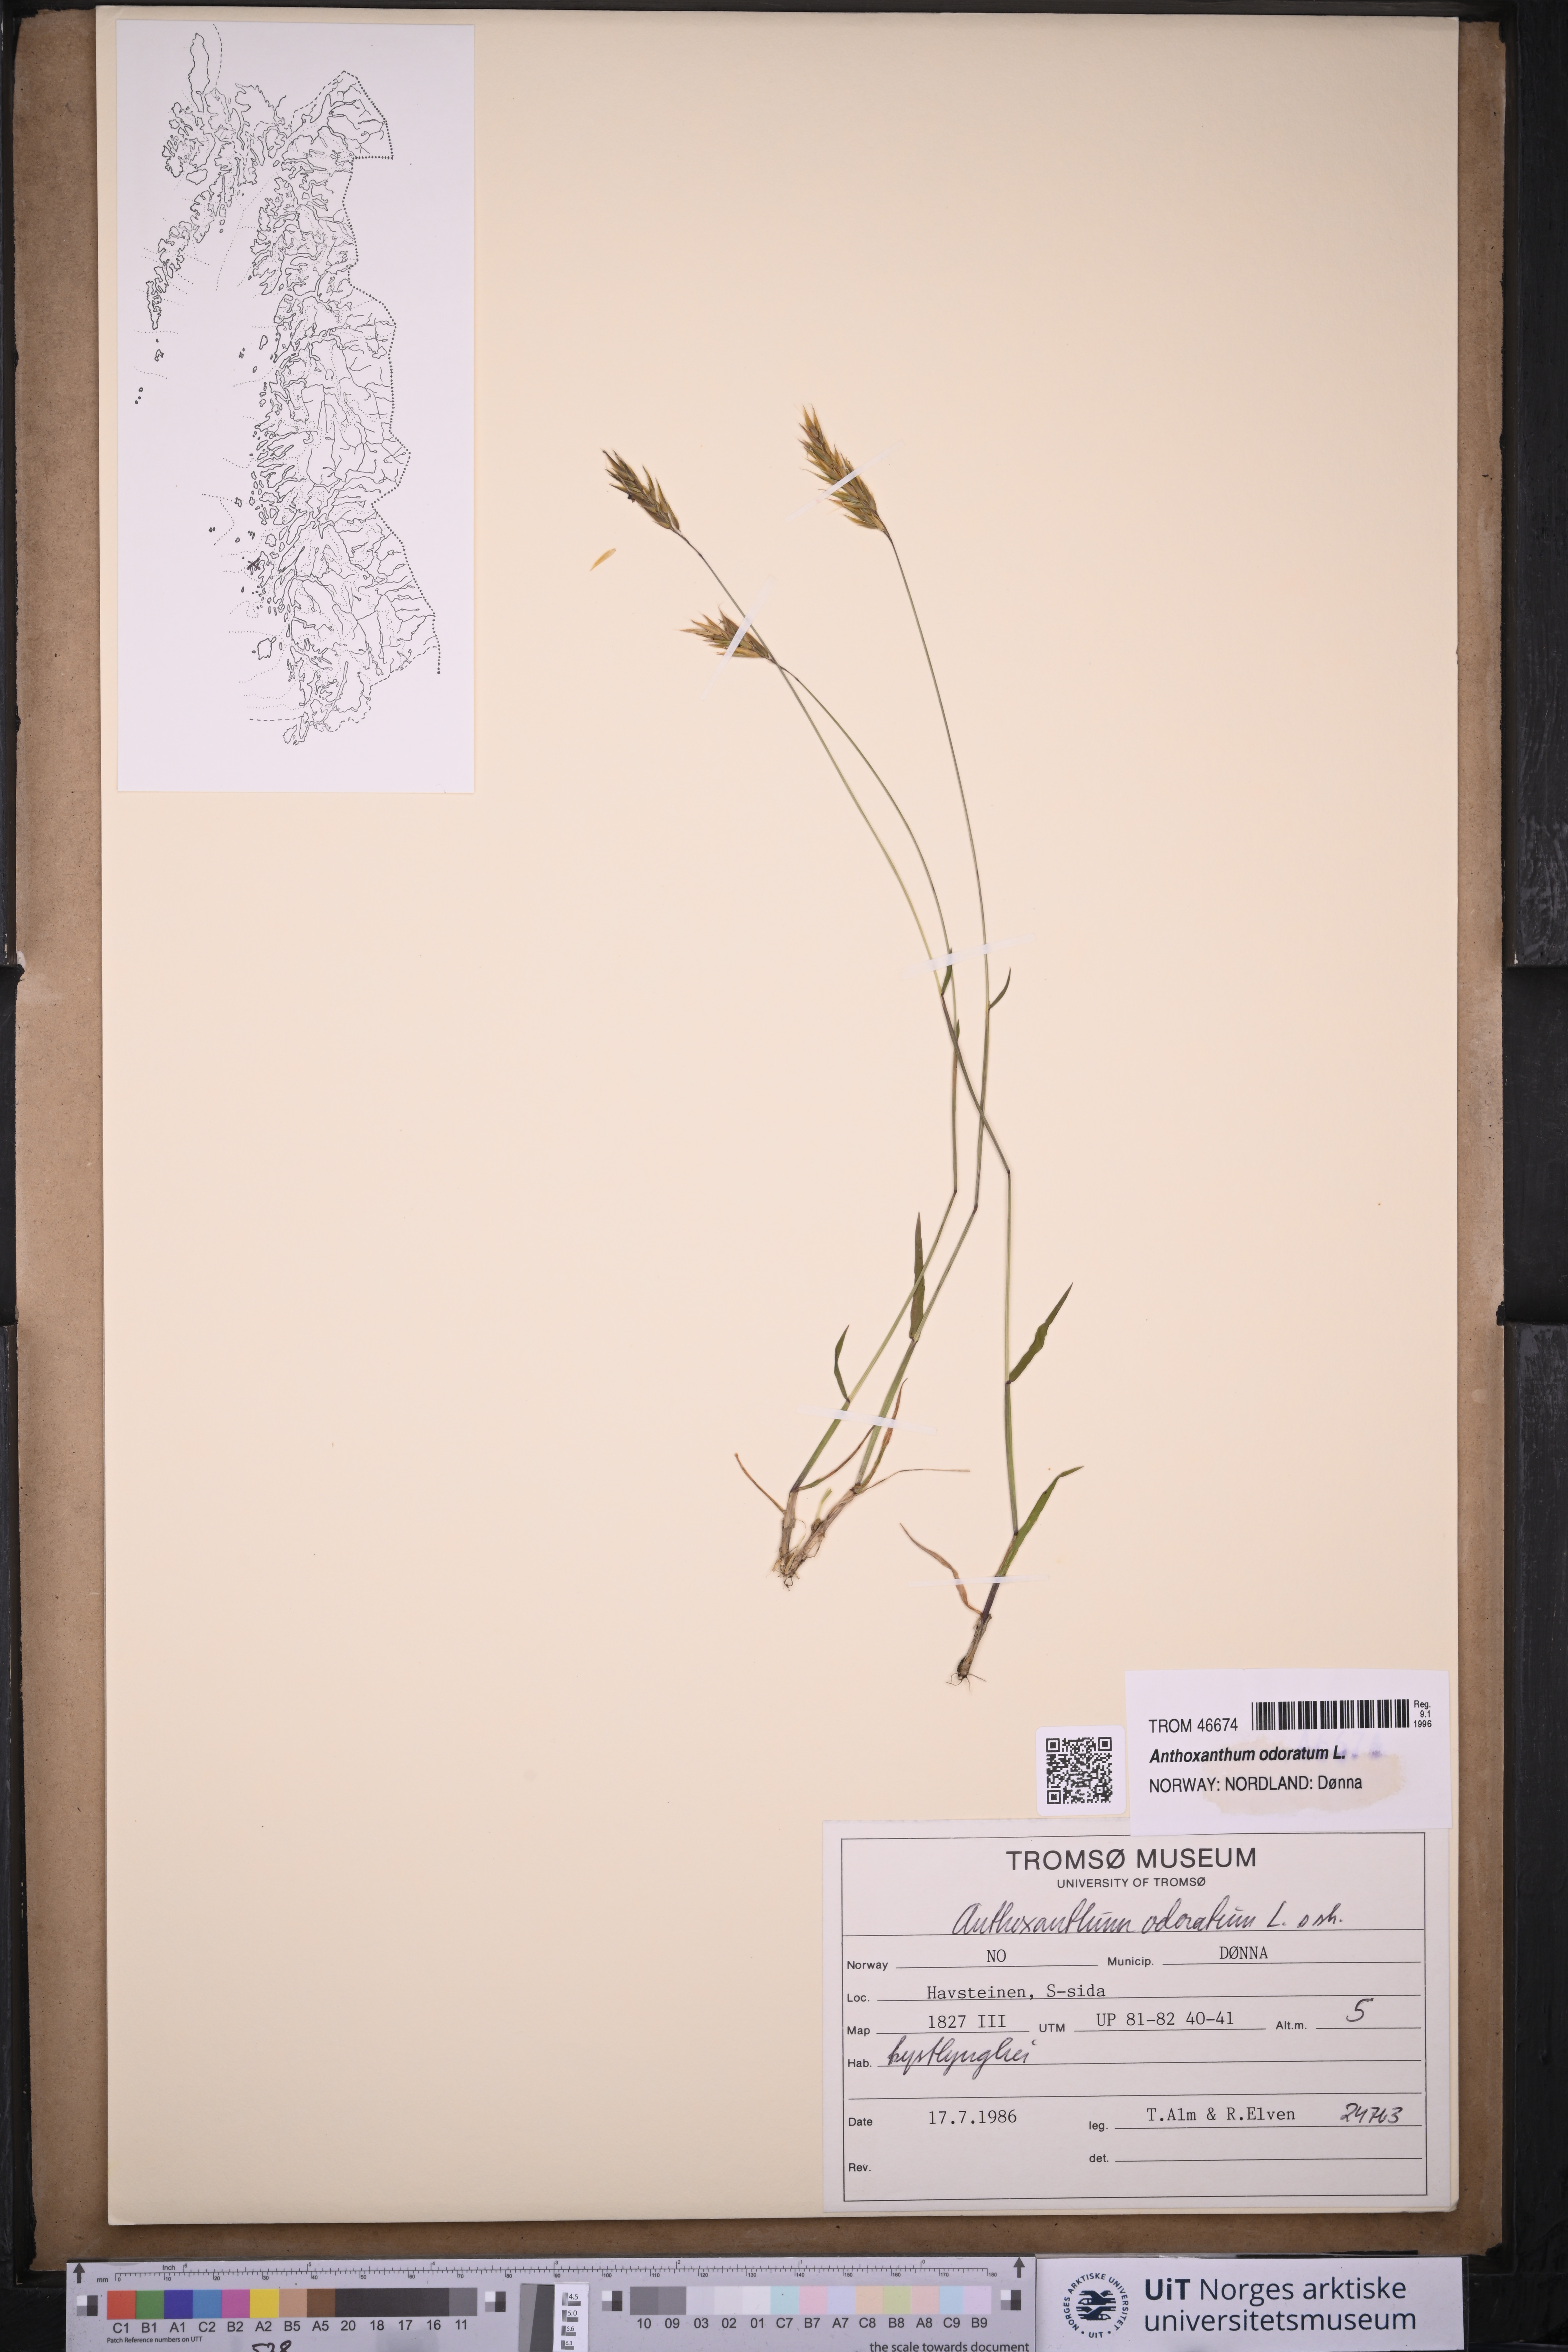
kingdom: Plantae
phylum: Tracheophyta
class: Liliopsida
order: Poales
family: Poaceae
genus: Anthoxanthum
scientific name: Anthoxanthum odoratum
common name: Sweet vernalgrass
